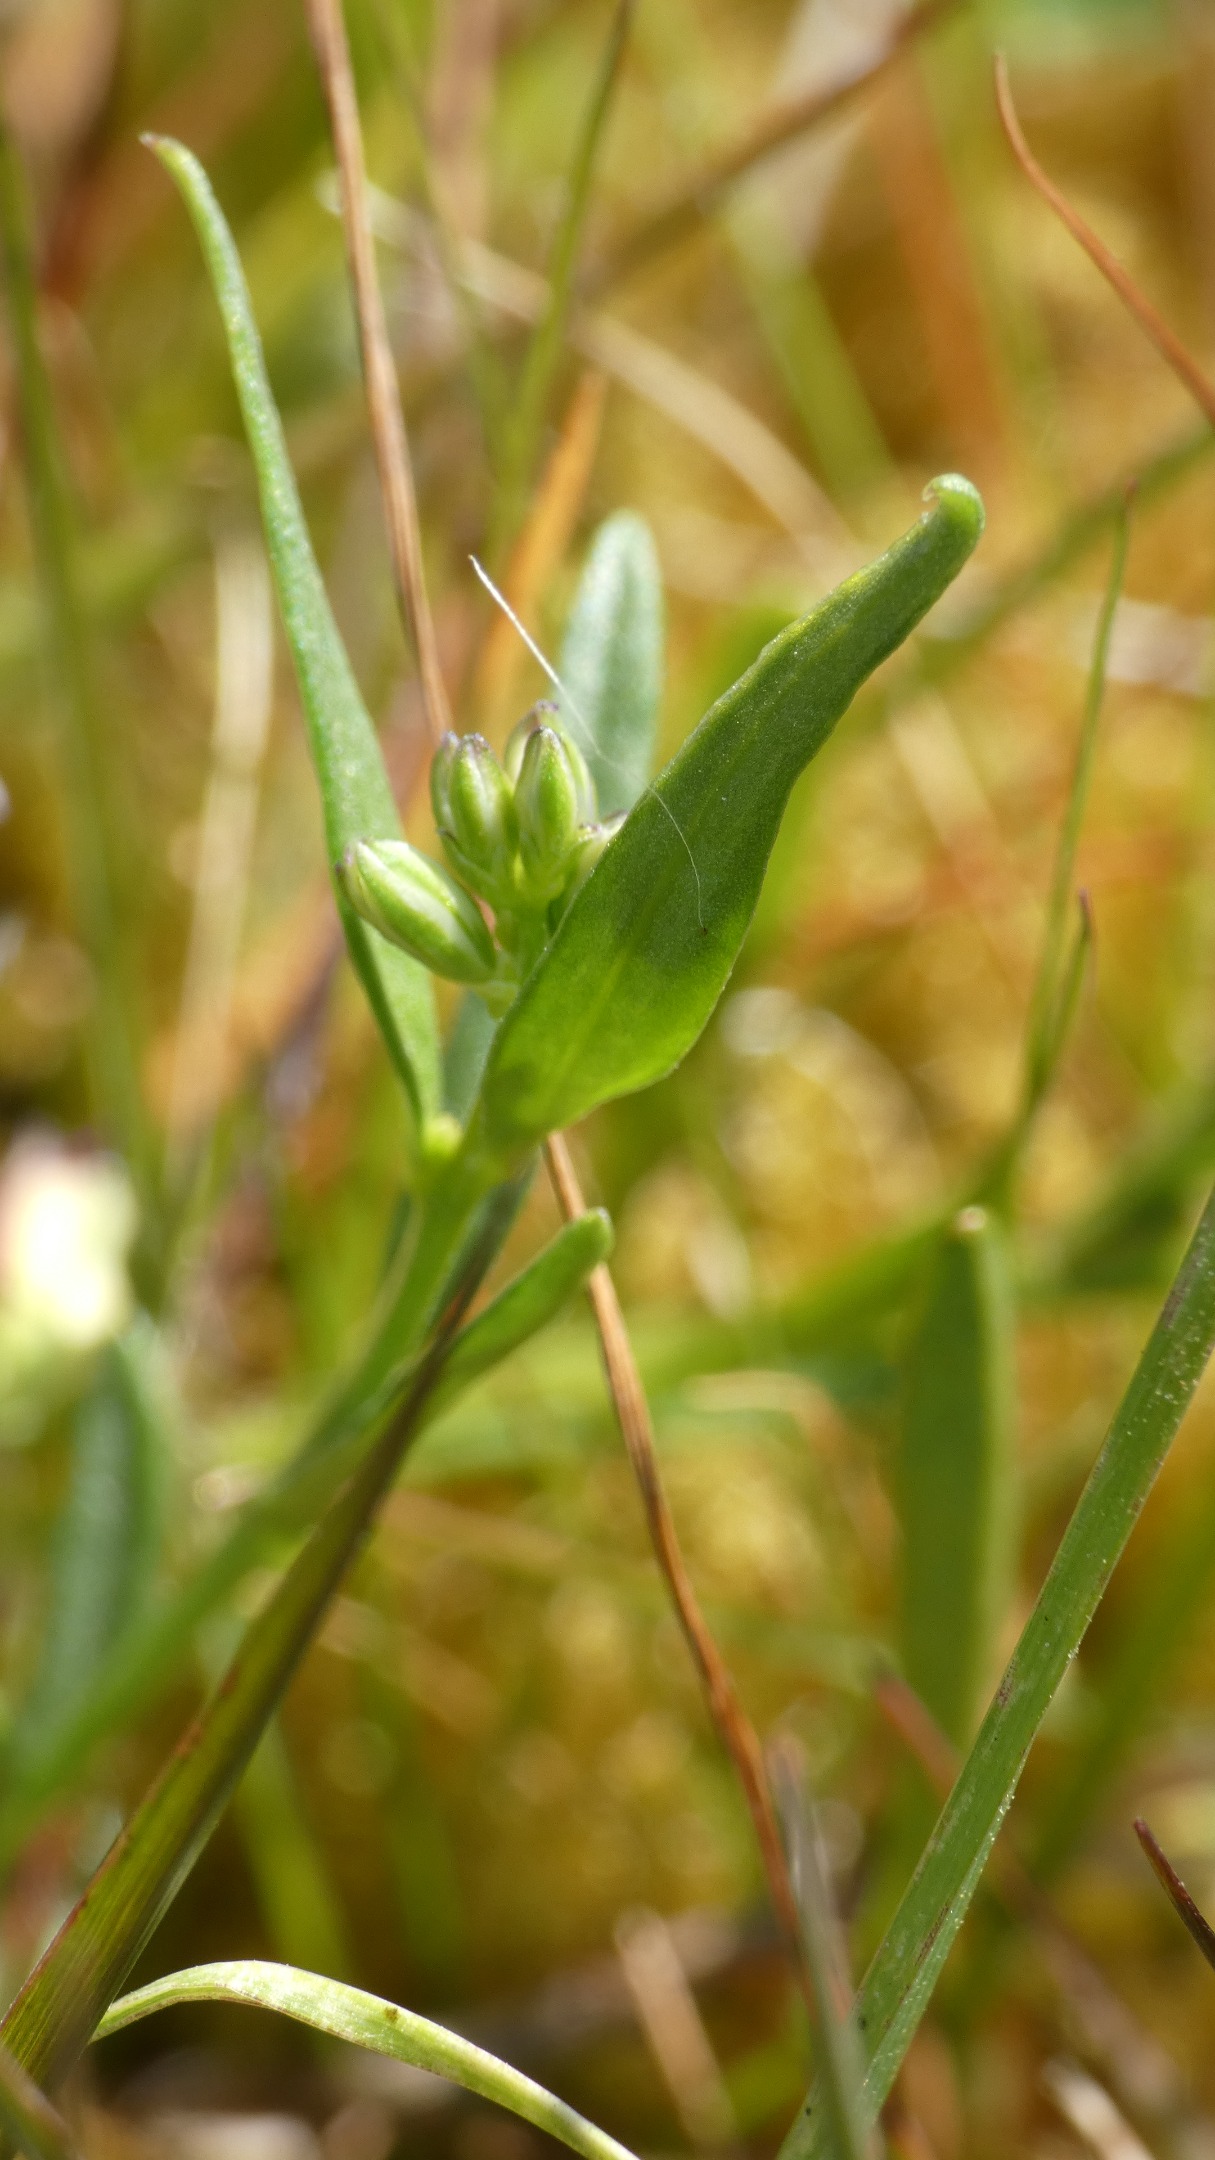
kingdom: Plantae
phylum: Tracheophyta
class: Magnoliopsida
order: Fabales
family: Polygalaceae
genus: Polygala
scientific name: Polygala vulgaris
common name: Almindelig mælkeurt
